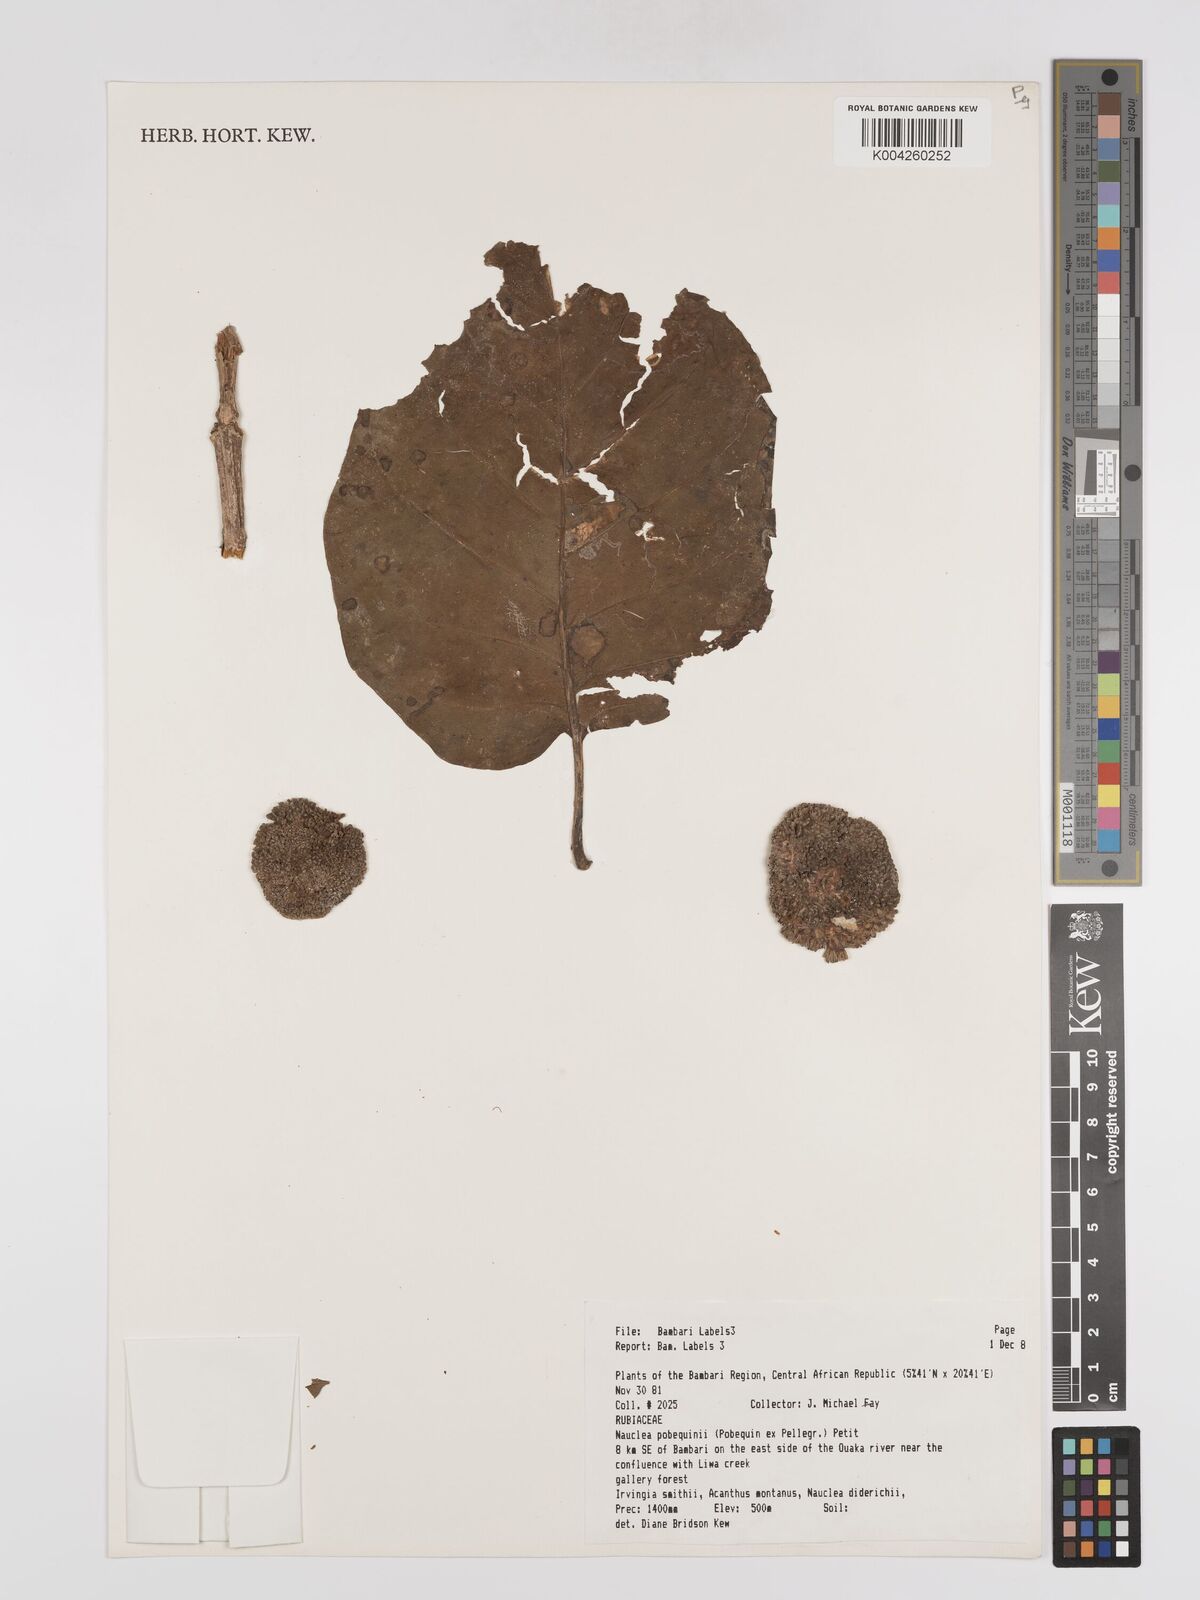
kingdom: Plantae
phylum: Tracheophyta
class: Magnoliopsida
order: Gentianales
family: Rubiaceae
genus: Nauclea
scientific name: Nauclea pobeguinii
